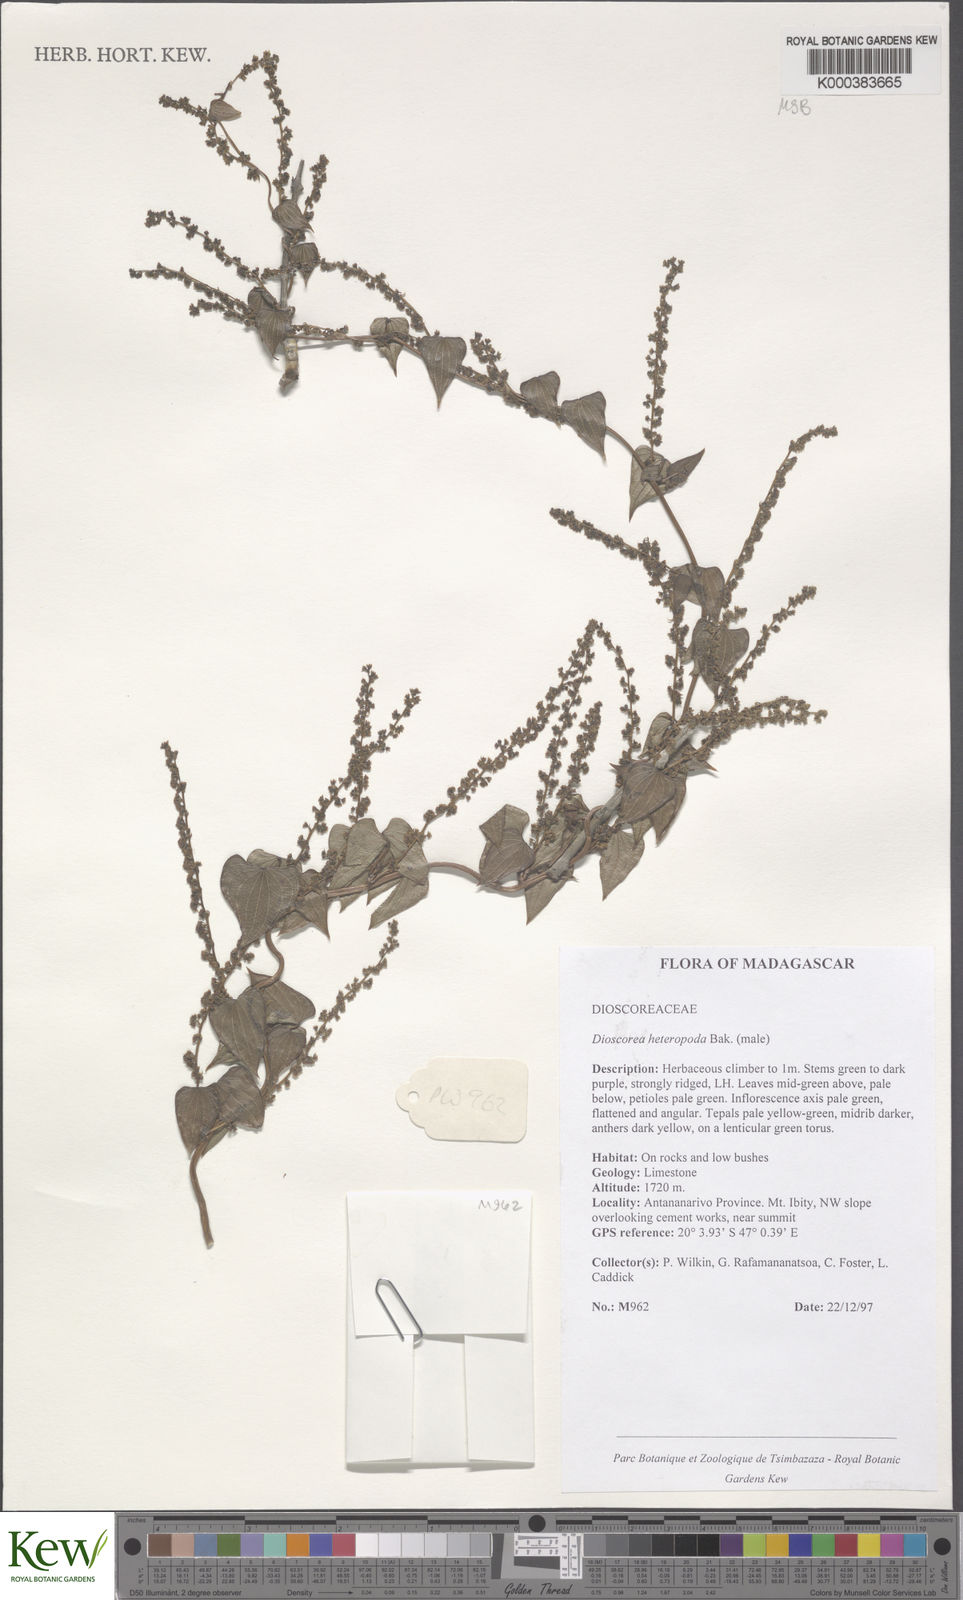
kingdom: Plantae
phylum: Tracheophyta
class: Liliopsida
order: Dioscoreales
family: Dioscoreaceae
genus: Dioscorea
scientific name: Dioscorea heteropoda
